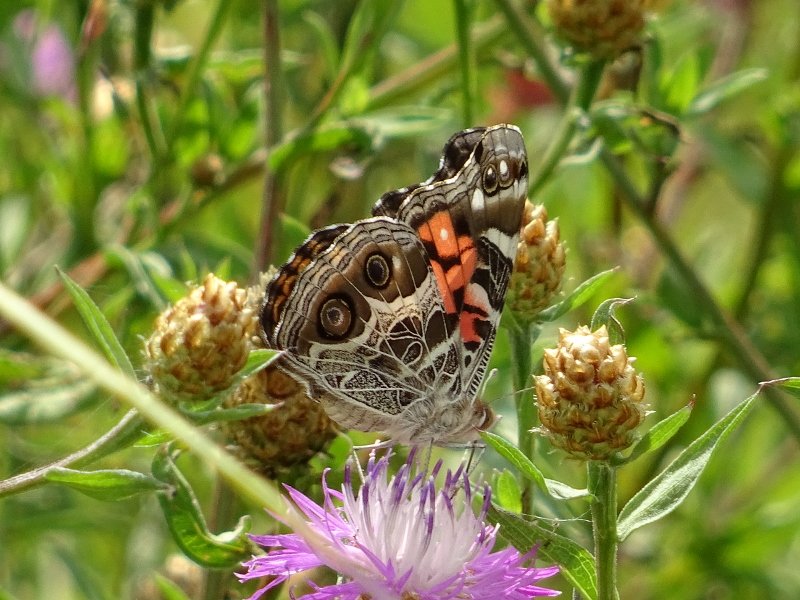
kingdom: Animalia
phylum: Arthropoda
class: Insecta
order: Lepidoptera
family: Nymphalidae
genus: Vanessa
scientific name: Vanessa virginiensis
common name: American Lady
